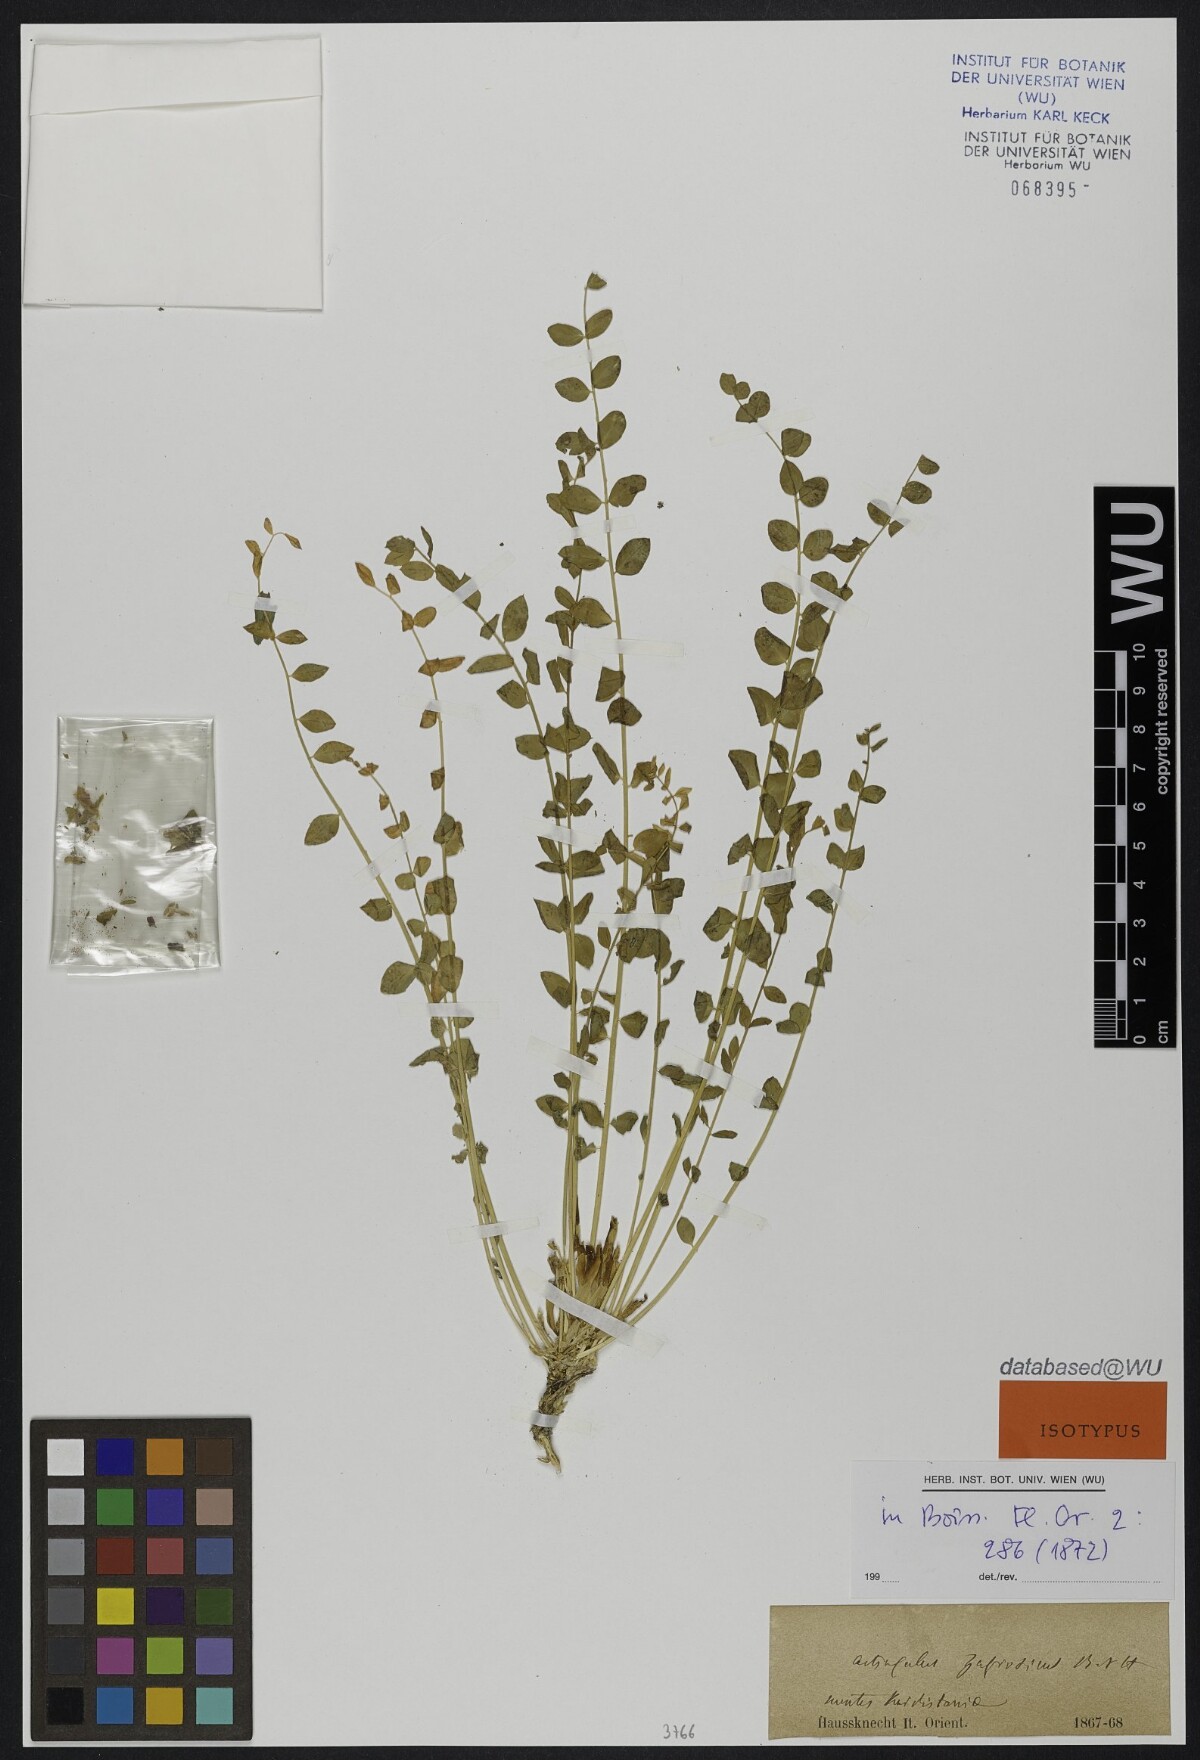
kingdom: Plantae
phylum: Tracheophyta
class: Magnoliopsida
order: Fabales
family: Fabaceae
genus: Astragalus
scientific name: Astragalus zagrosicus
